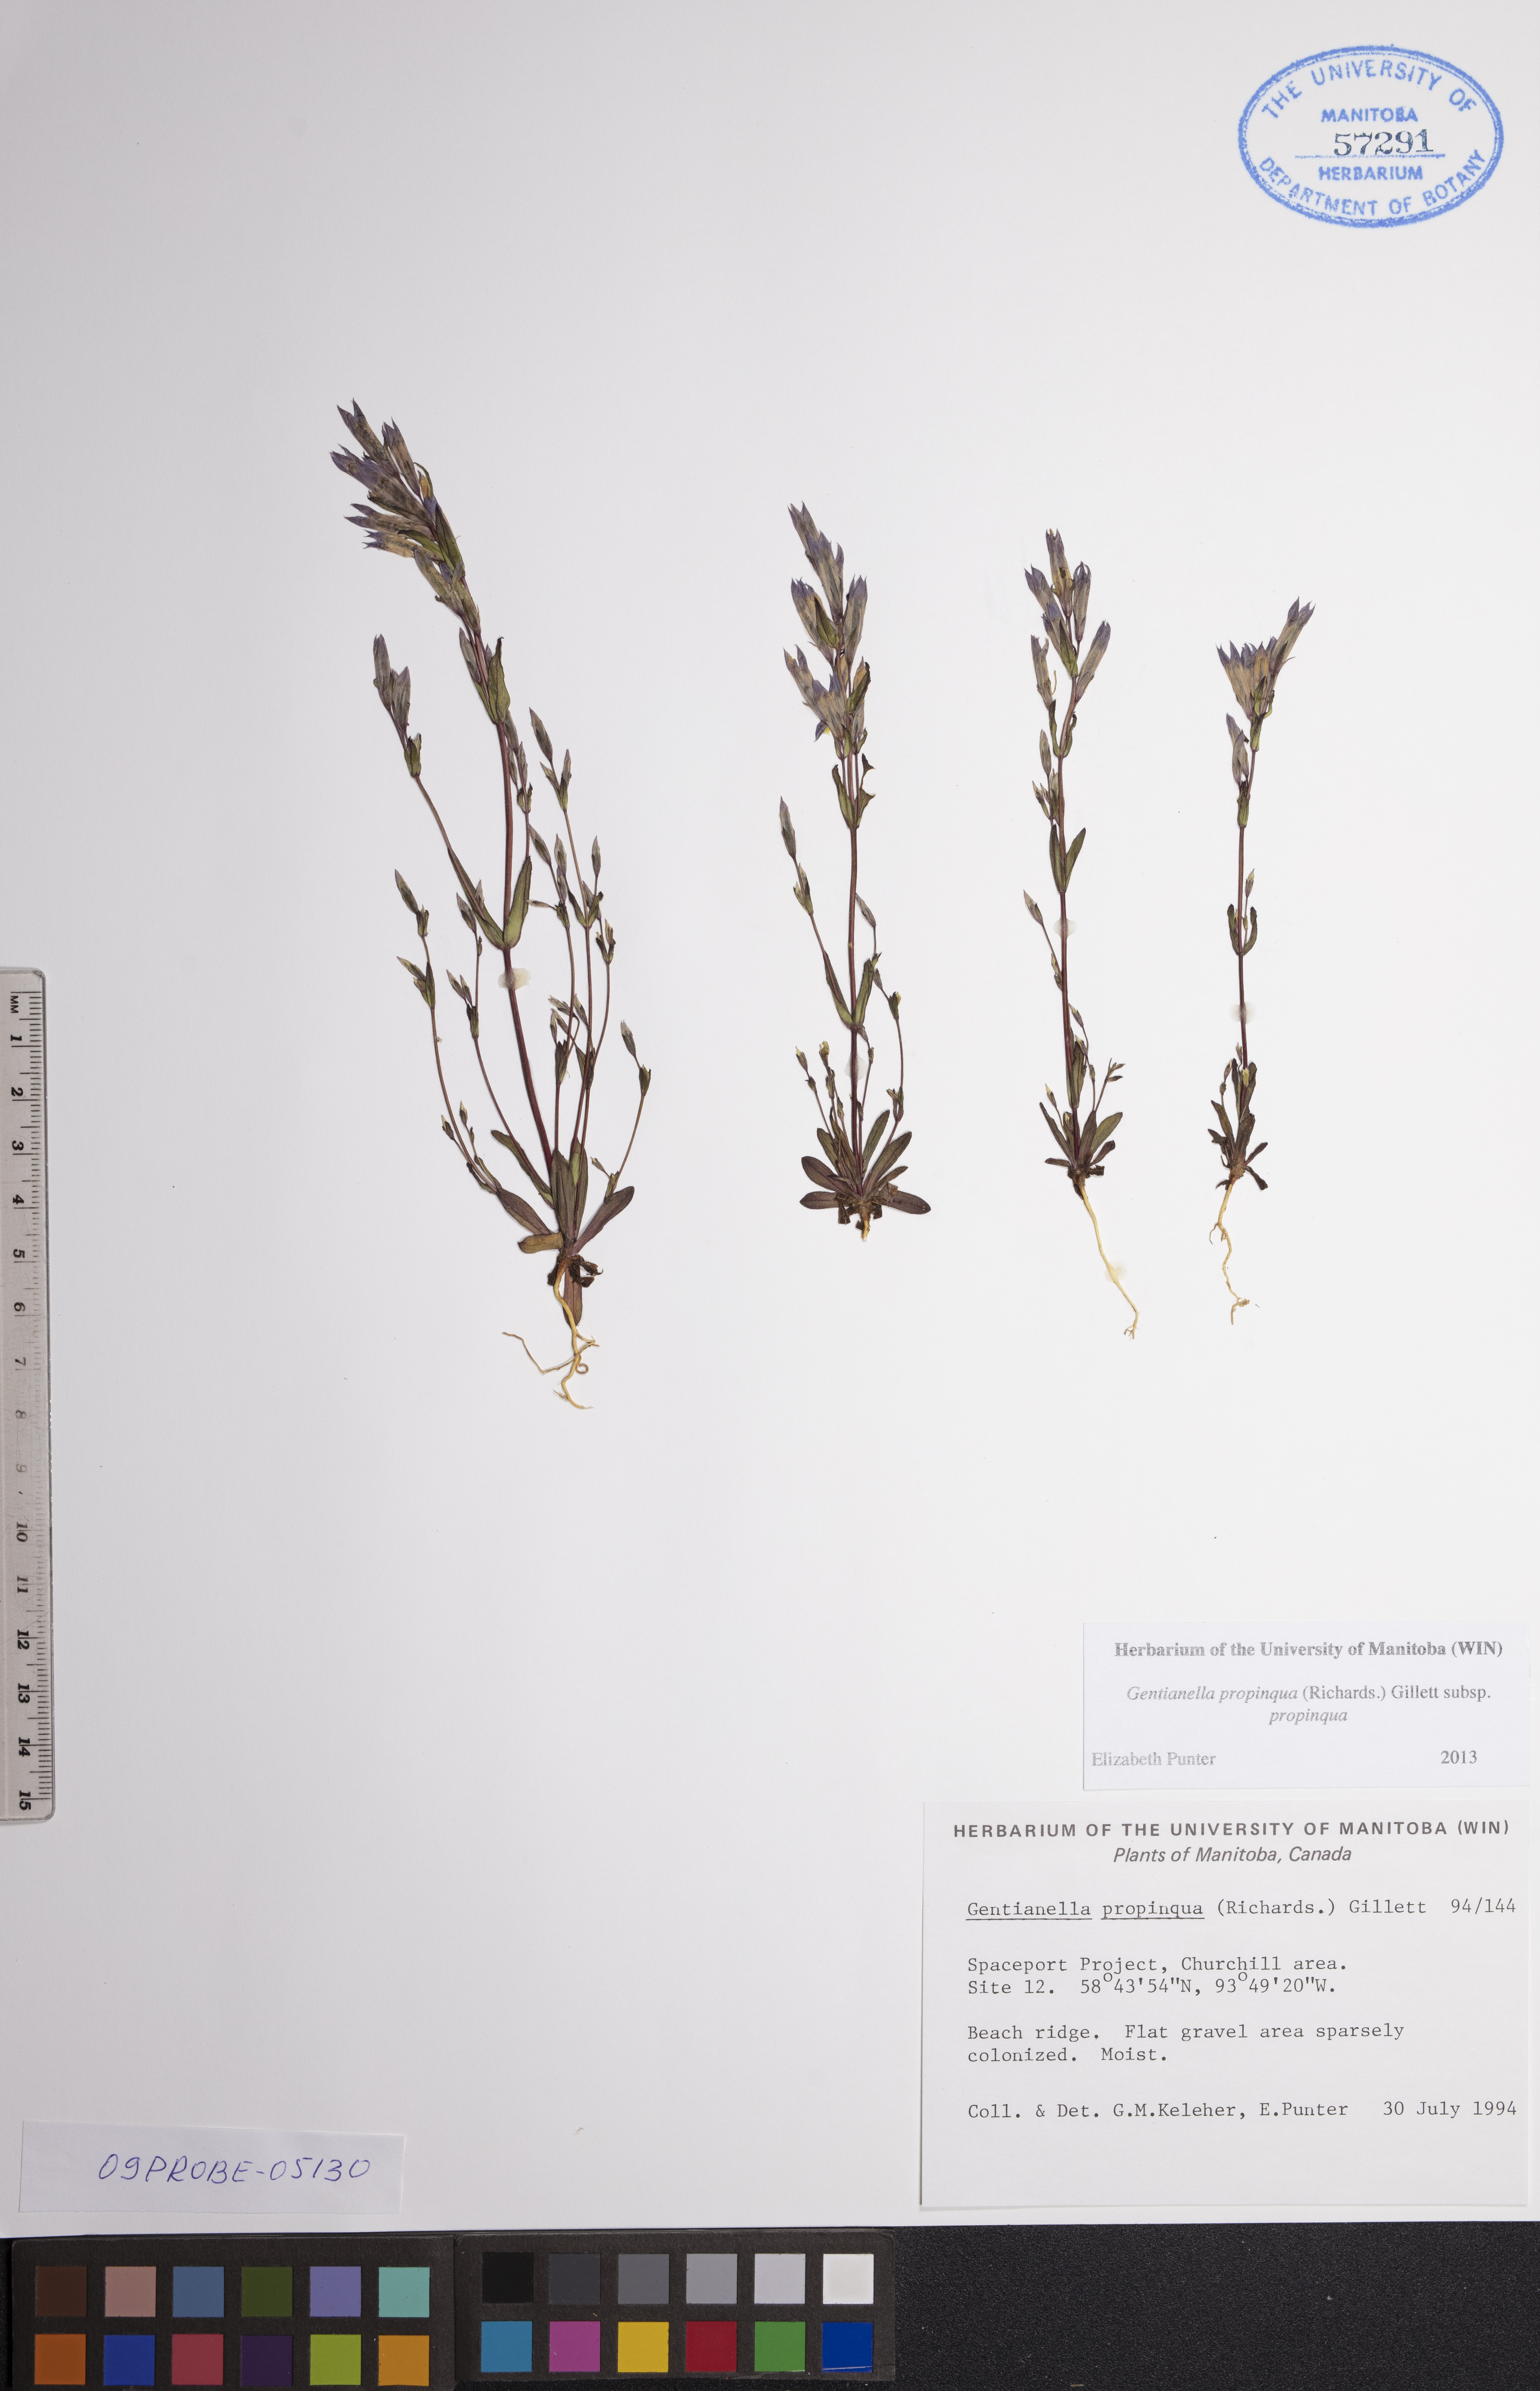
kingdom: Plantae
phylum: Tracheophyta
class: Magnoliopsida
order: Gentianales
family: Gentianaceae
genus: Gentianella
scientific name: Gentianella propinqua
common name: Four-parted dwarf-gentian
